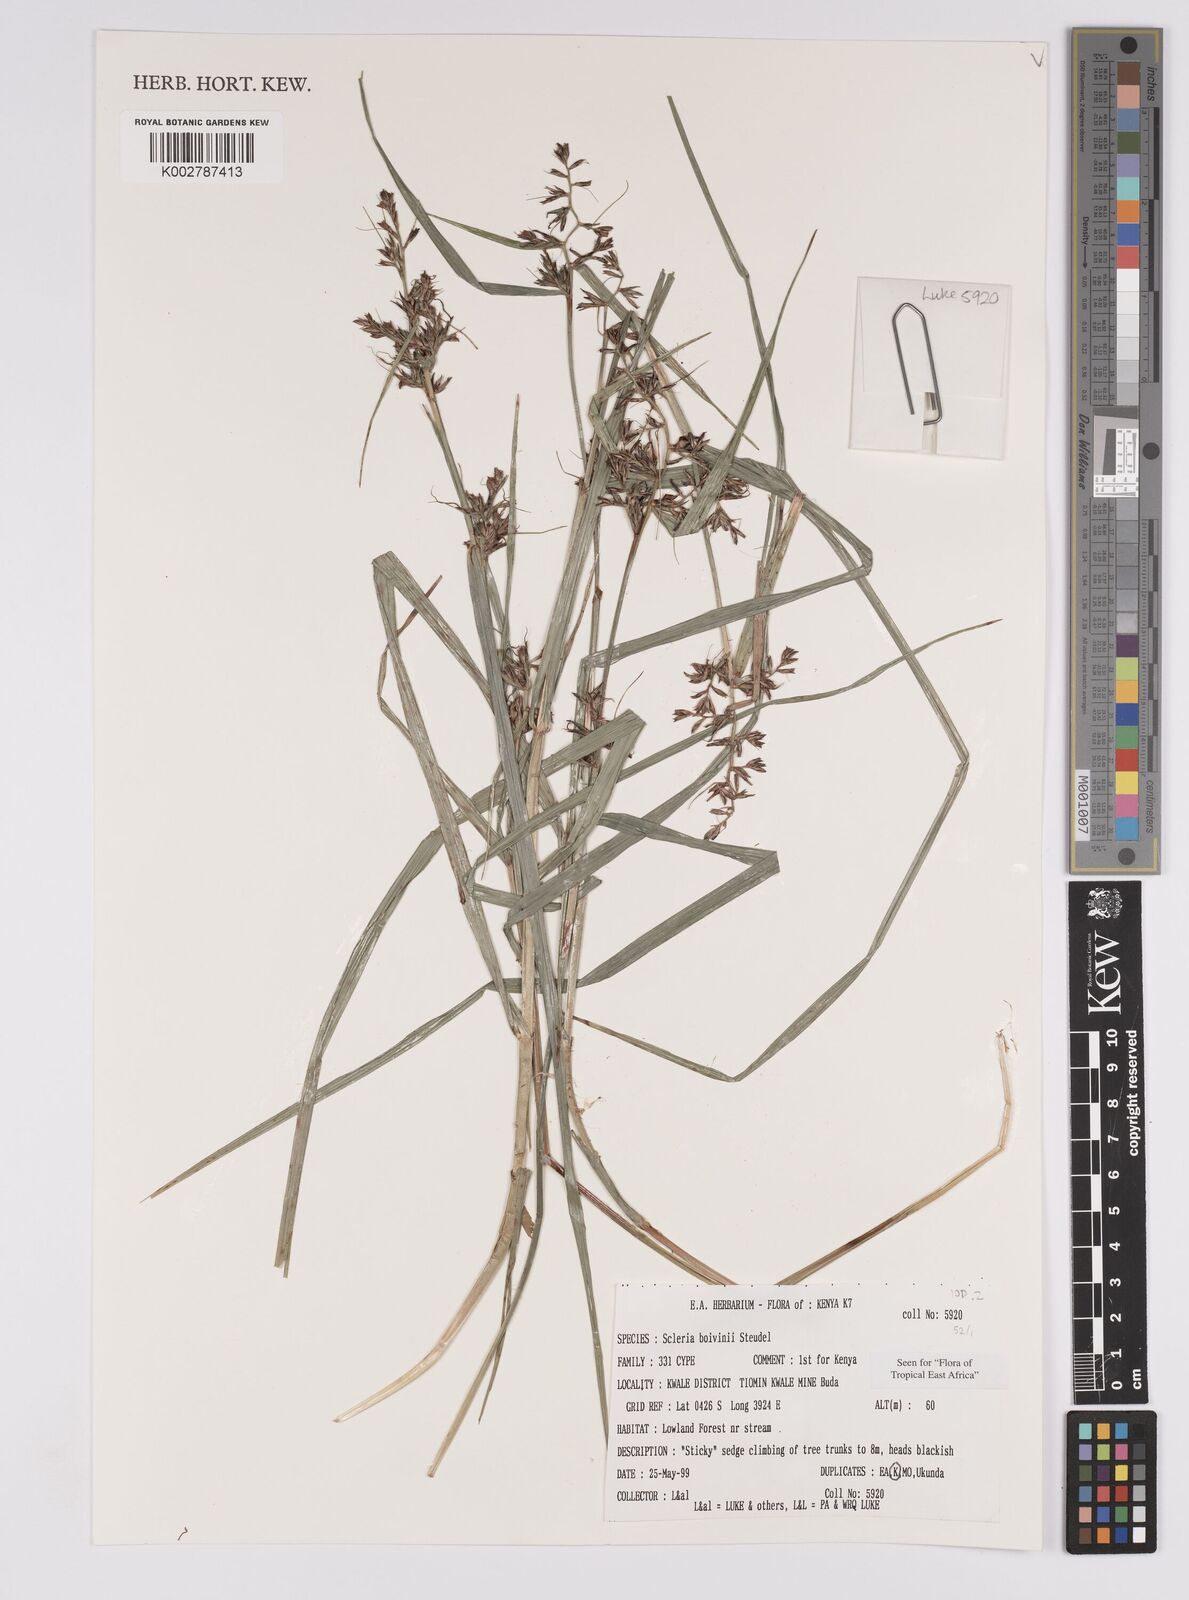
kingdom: Plantae
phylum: Tracheophyta
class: Liliopsida
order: Poales
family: Cyperaceae
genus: Scleria
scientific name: Scleria boivinii
